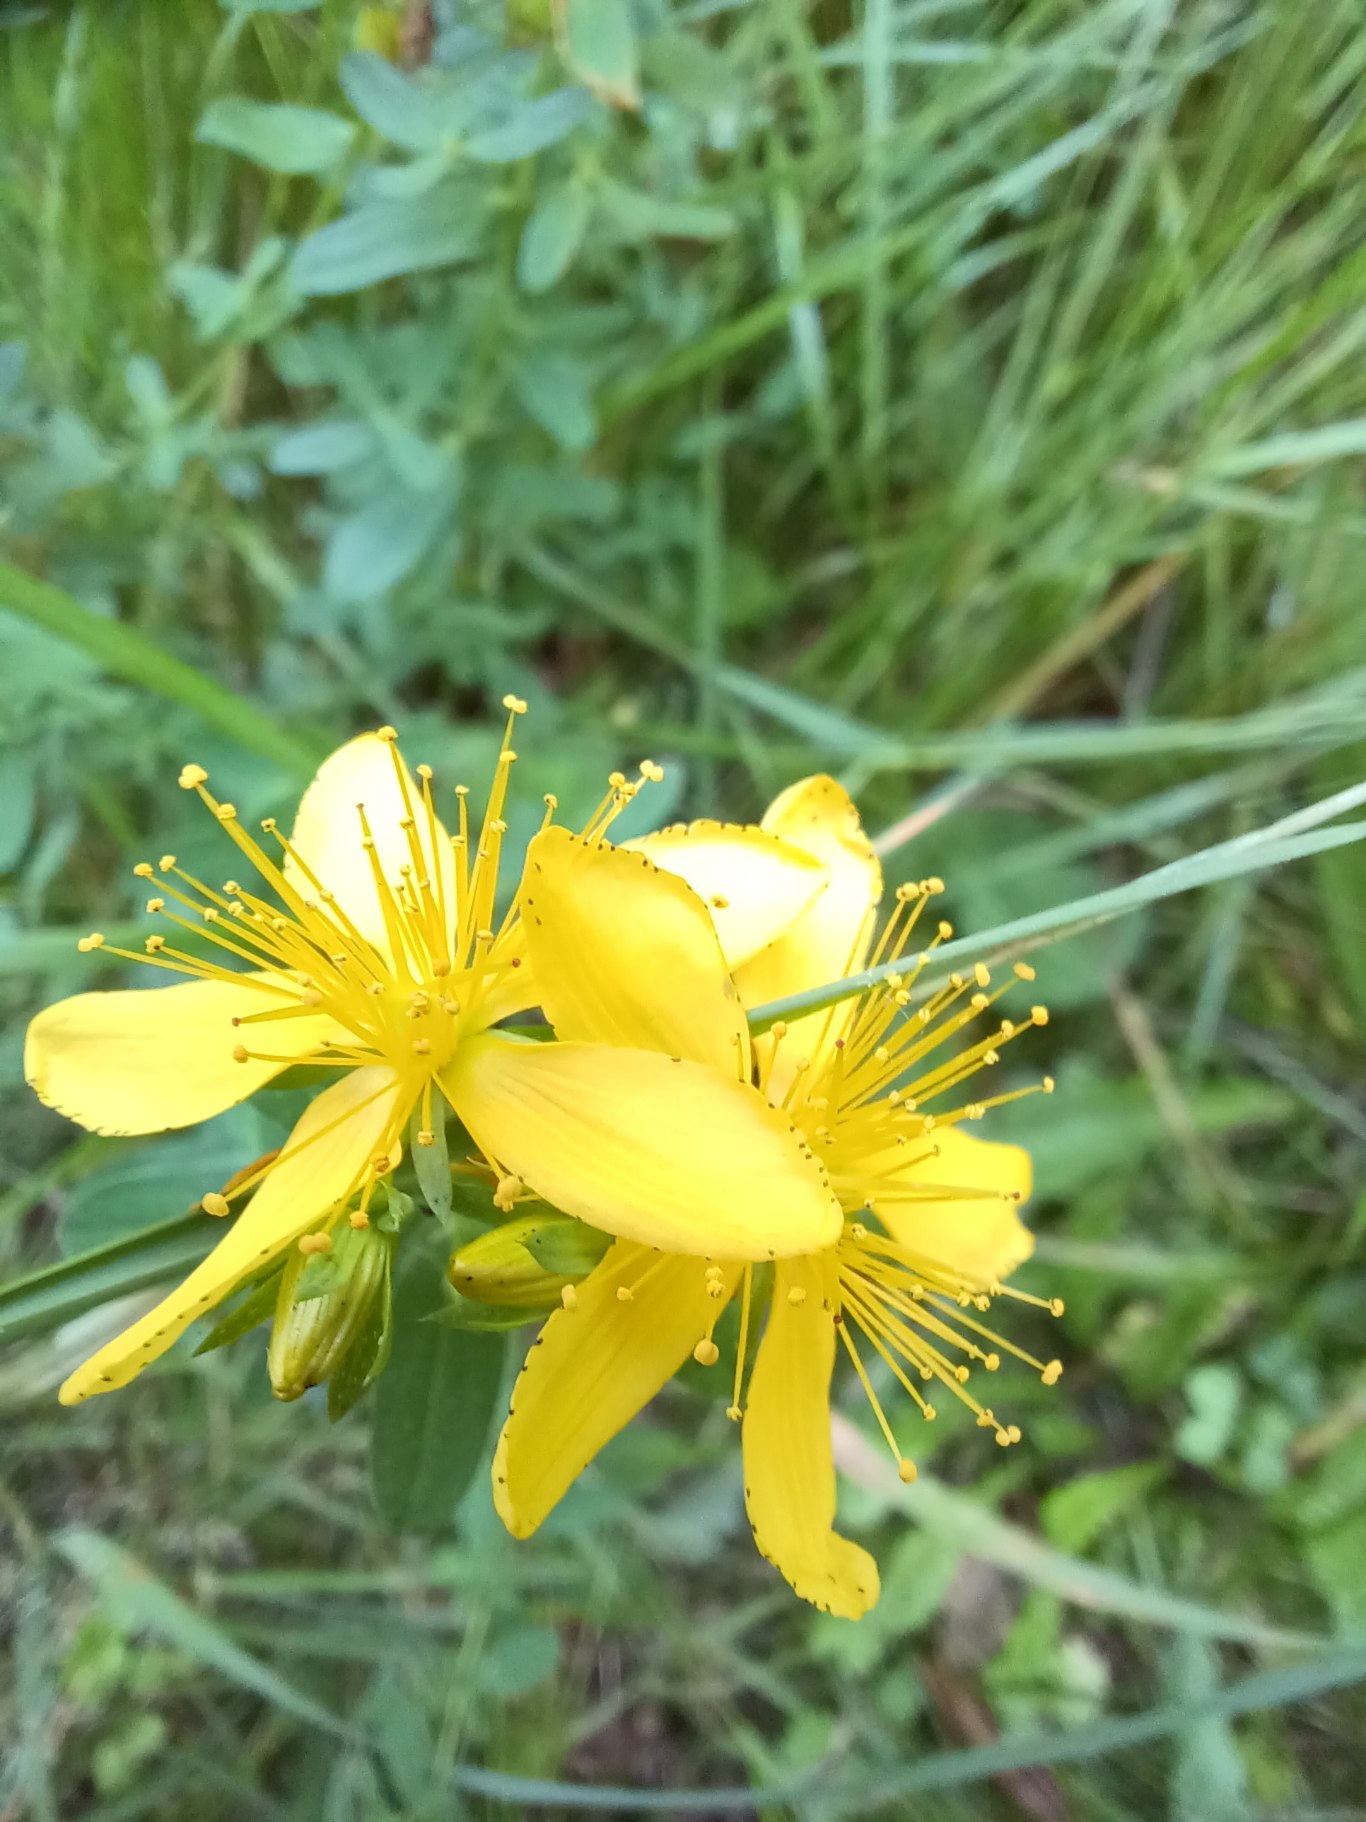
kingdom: Plantae
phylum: Tracheophyta
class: Magnoliopsida
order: Malpighiales
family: Hypericaceae
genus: Hypericum
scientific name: Hypericum perforatum
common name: Prikbladet perikon
